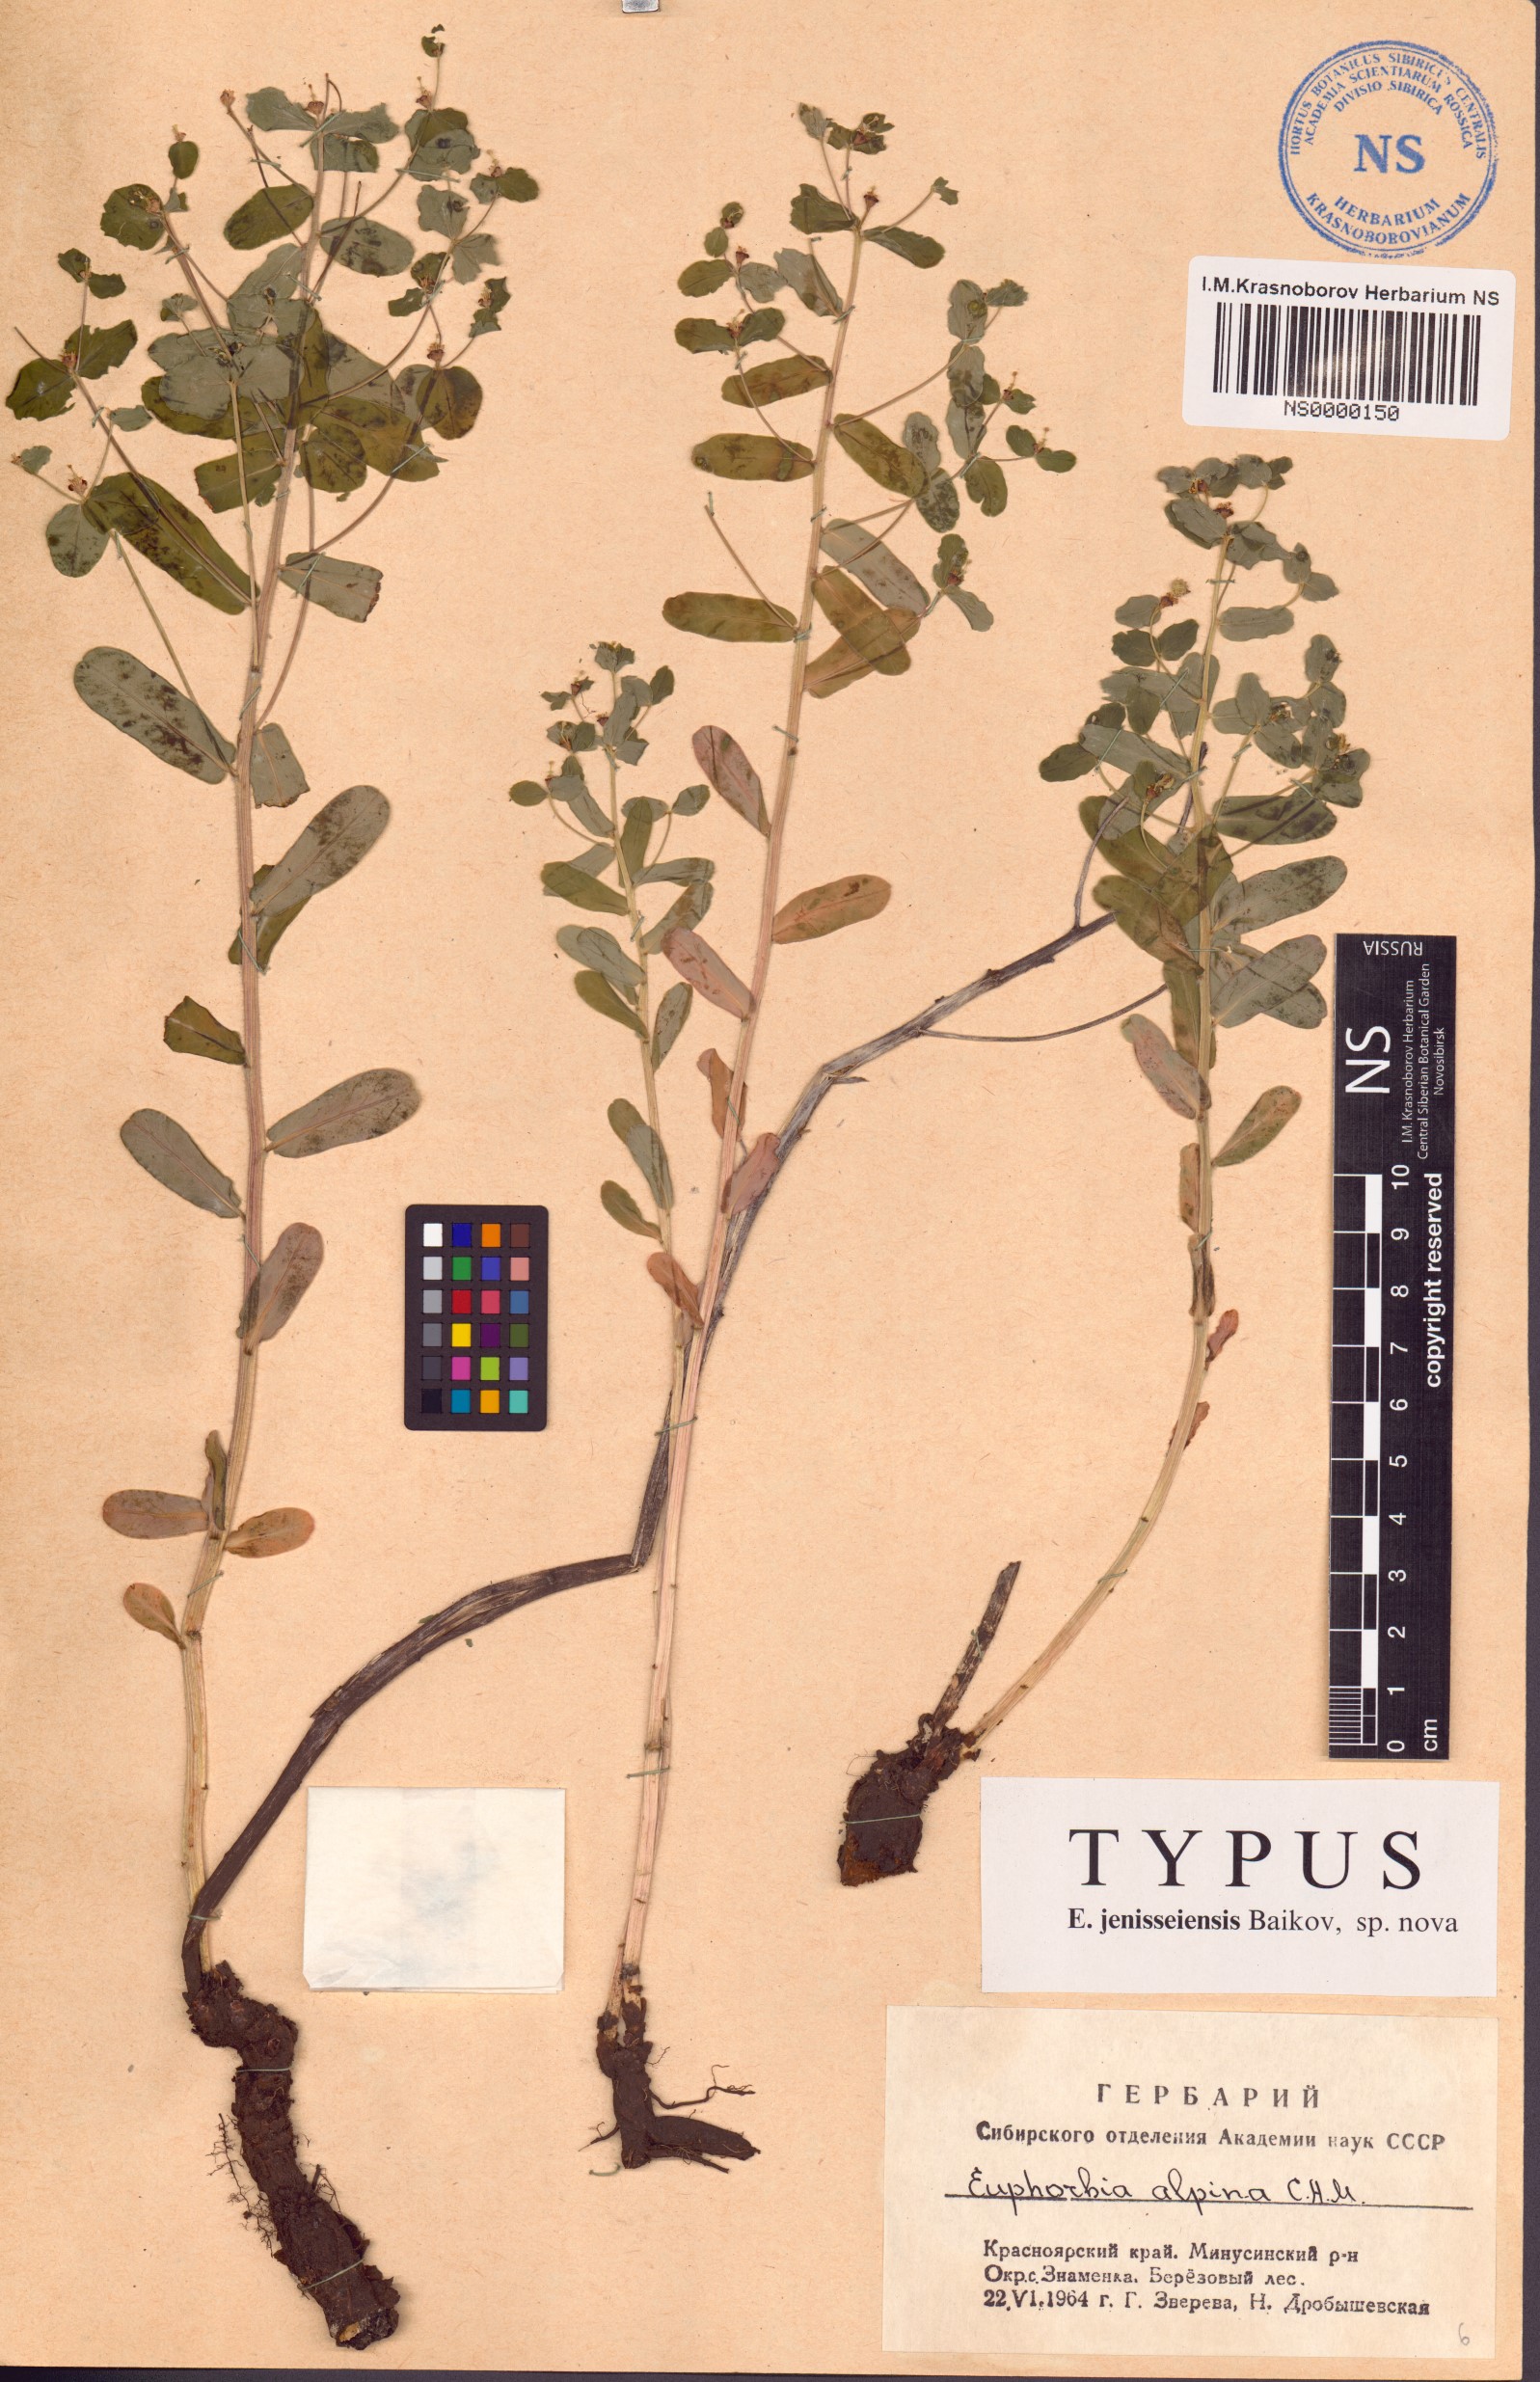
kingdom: Plantae
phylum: Tracheophyta
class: Magnoliopsida
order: Malpighiales
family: Euphorbiaceae
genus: Euphorbia
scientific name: Euphorbia jenisseiensis
